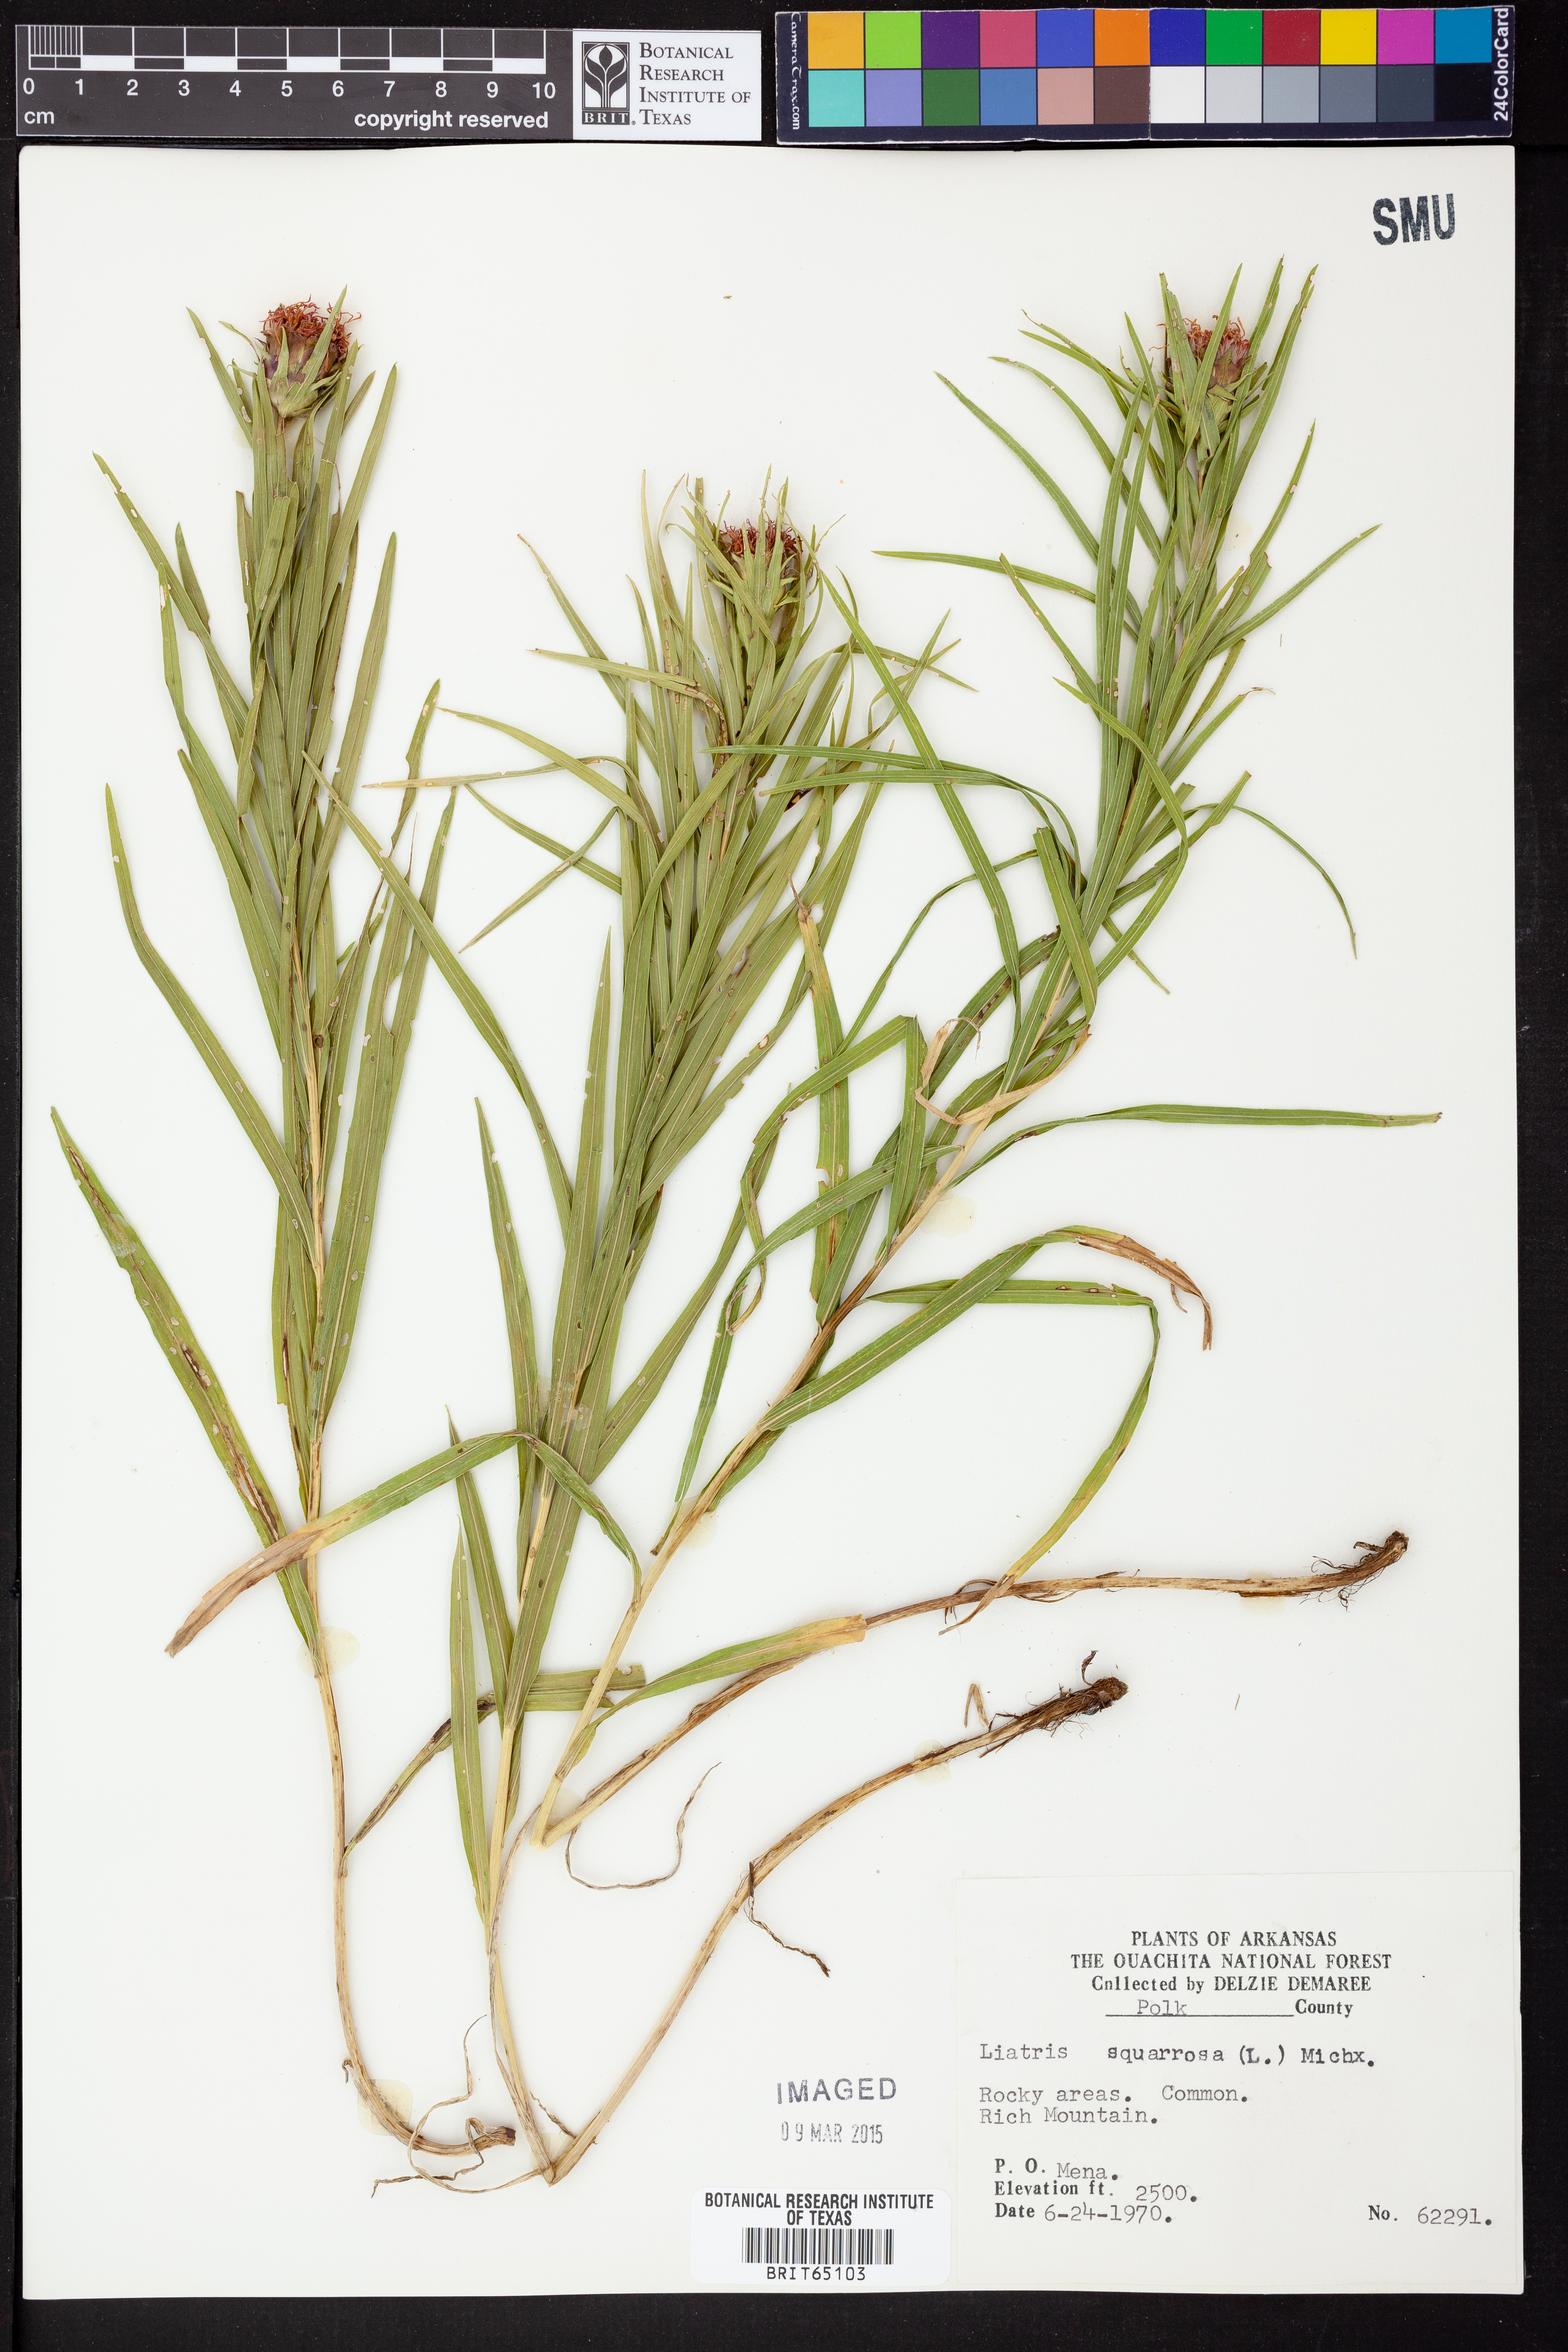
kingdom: Plantae
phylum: Tracheophyta
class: Magnoliopsida
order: Asterales
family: Asteraceae
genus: Liatris
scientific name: Liatris compacta
